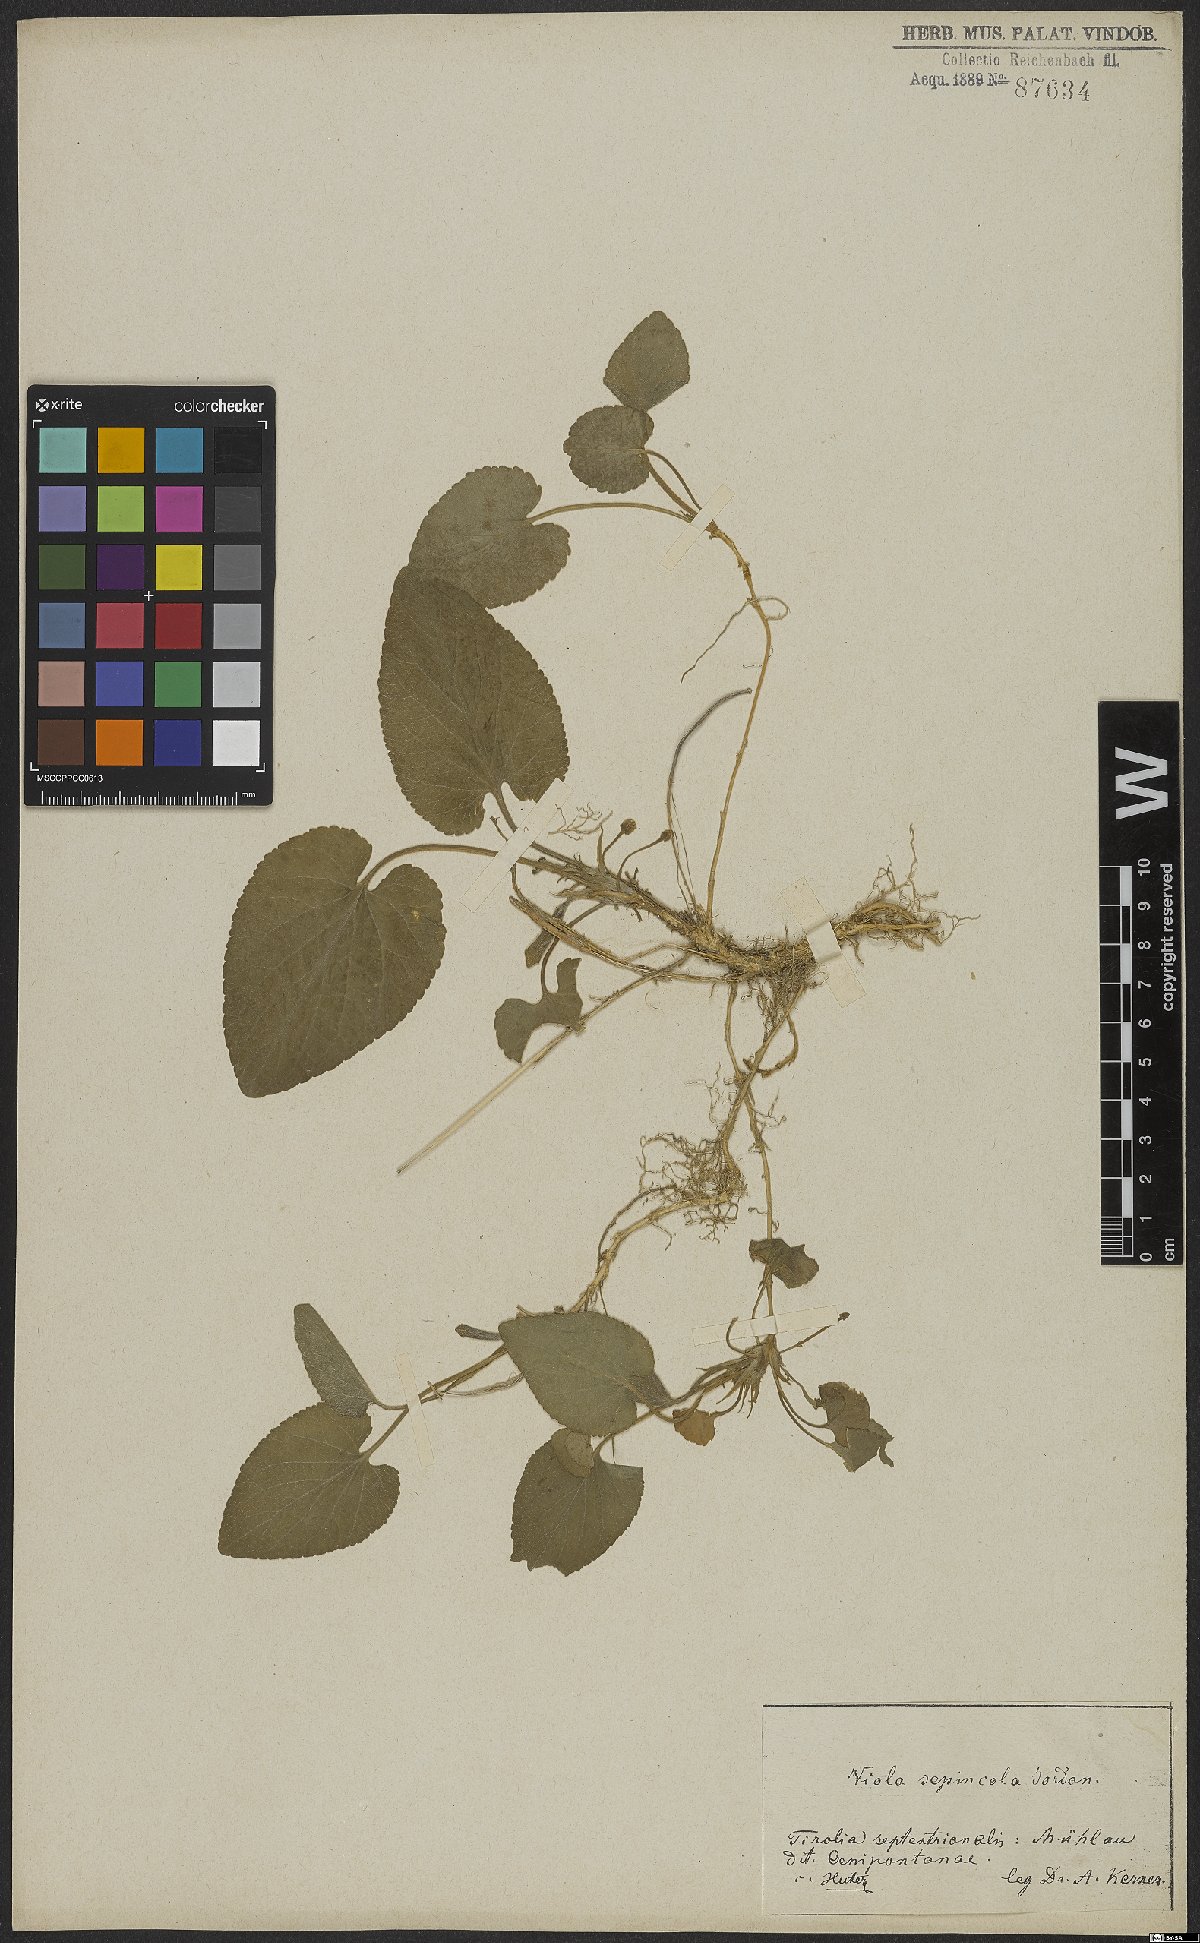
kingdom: Plantae
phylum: Tracheophyta
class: Magnoliopsida
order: Malpighiales
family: Violaceae
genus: Viola
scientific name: Viola suavis
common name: Russian violet
